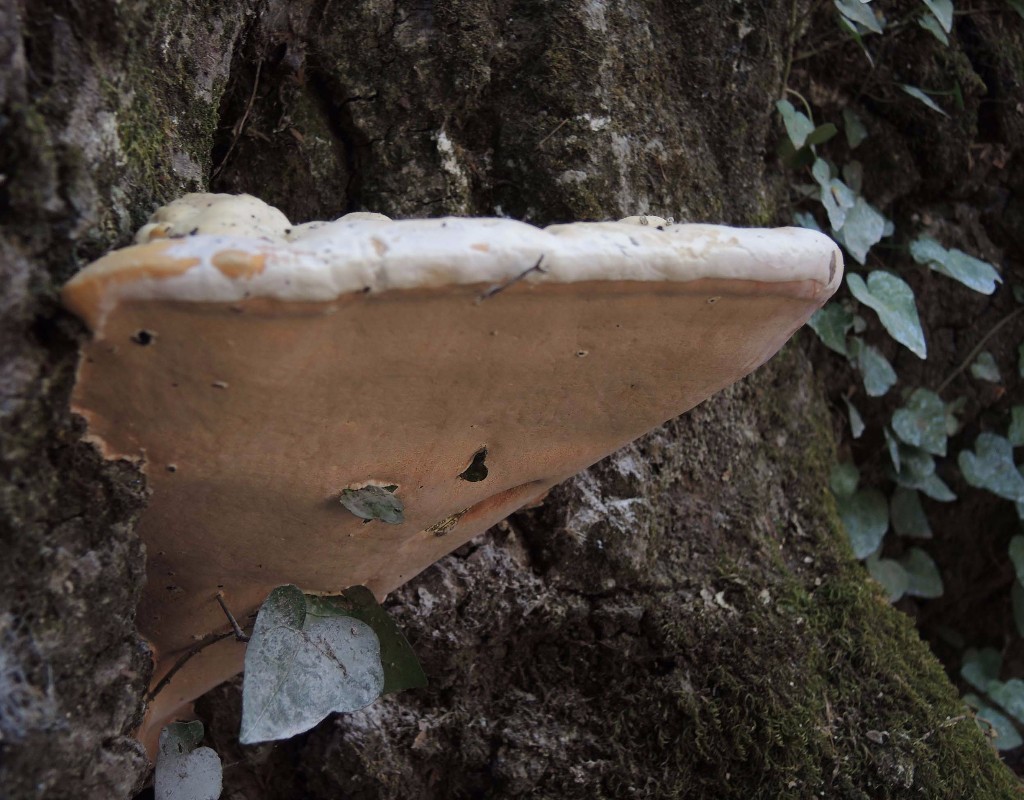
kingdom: Fungi
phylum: Basidiomycota
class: Agaricomycetes
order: Polyporales
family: Meripilaceae
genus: Rigidoporus
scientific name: Rigidoporus ulmarius
